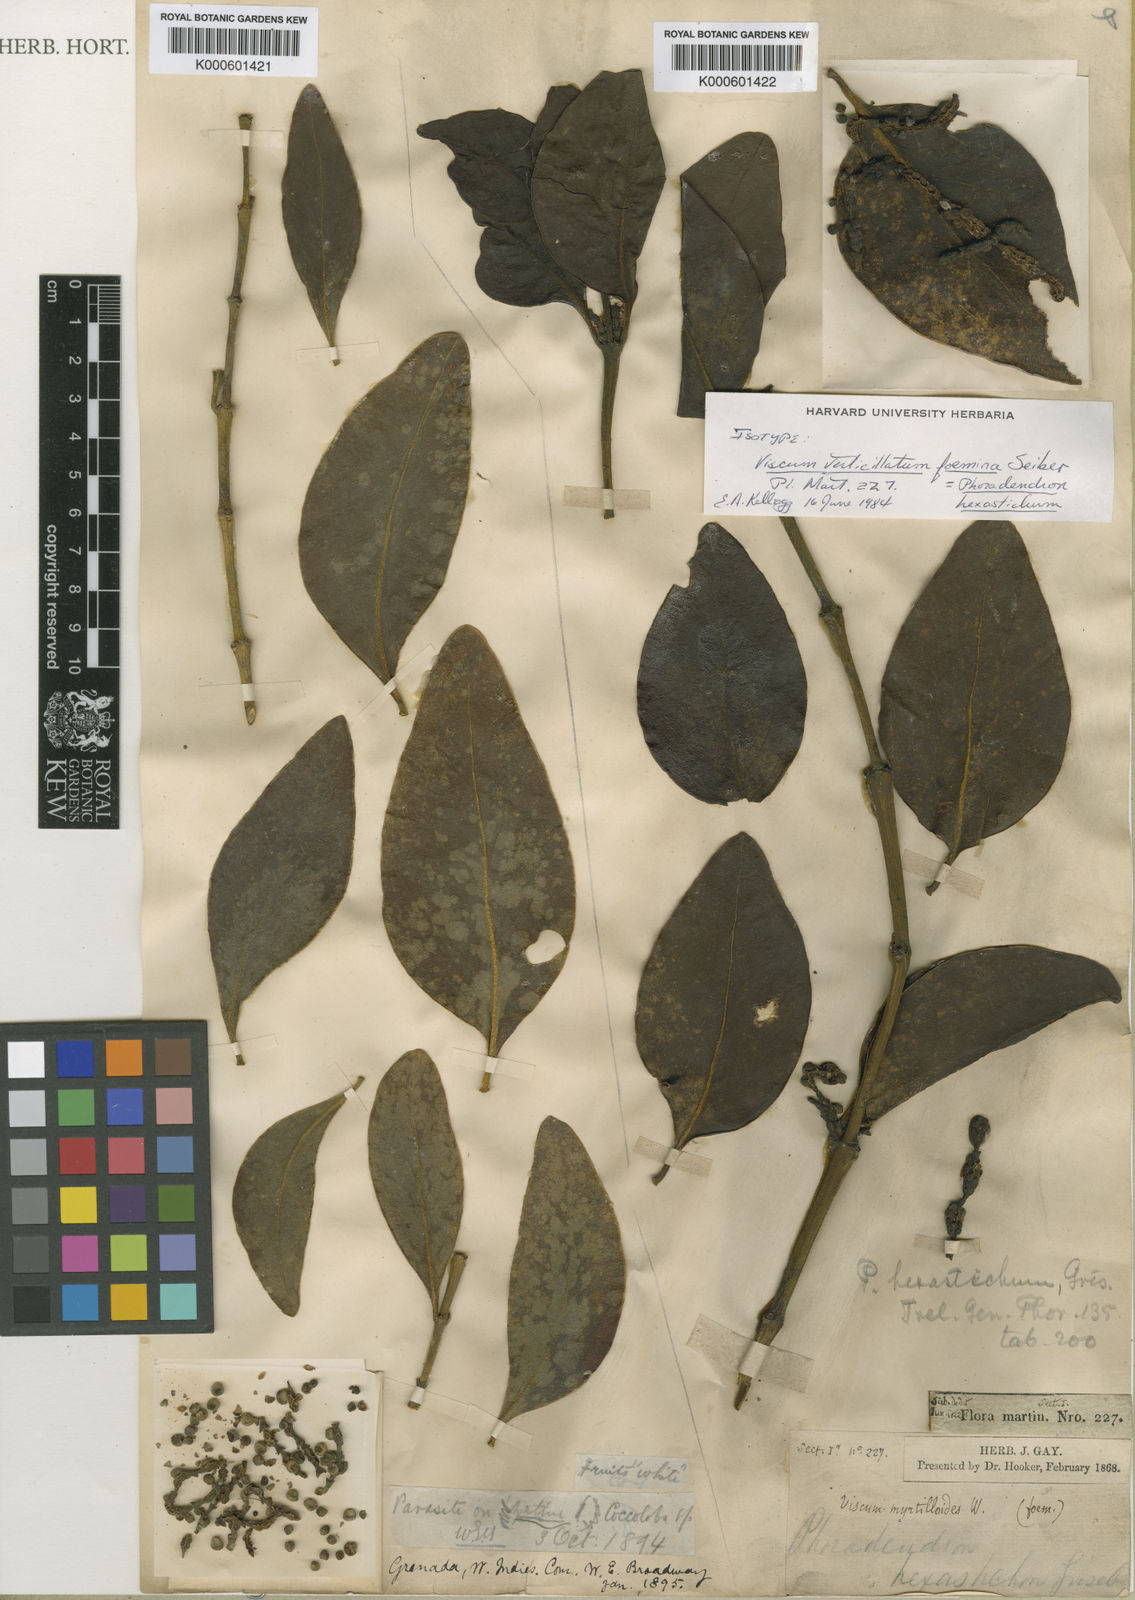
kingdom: Plantae
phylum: Tracheophyta
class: Magnoliopsida
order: Santalales
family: Viscaceae
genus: Phoradendron
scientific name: Phoradendron hexastichum
